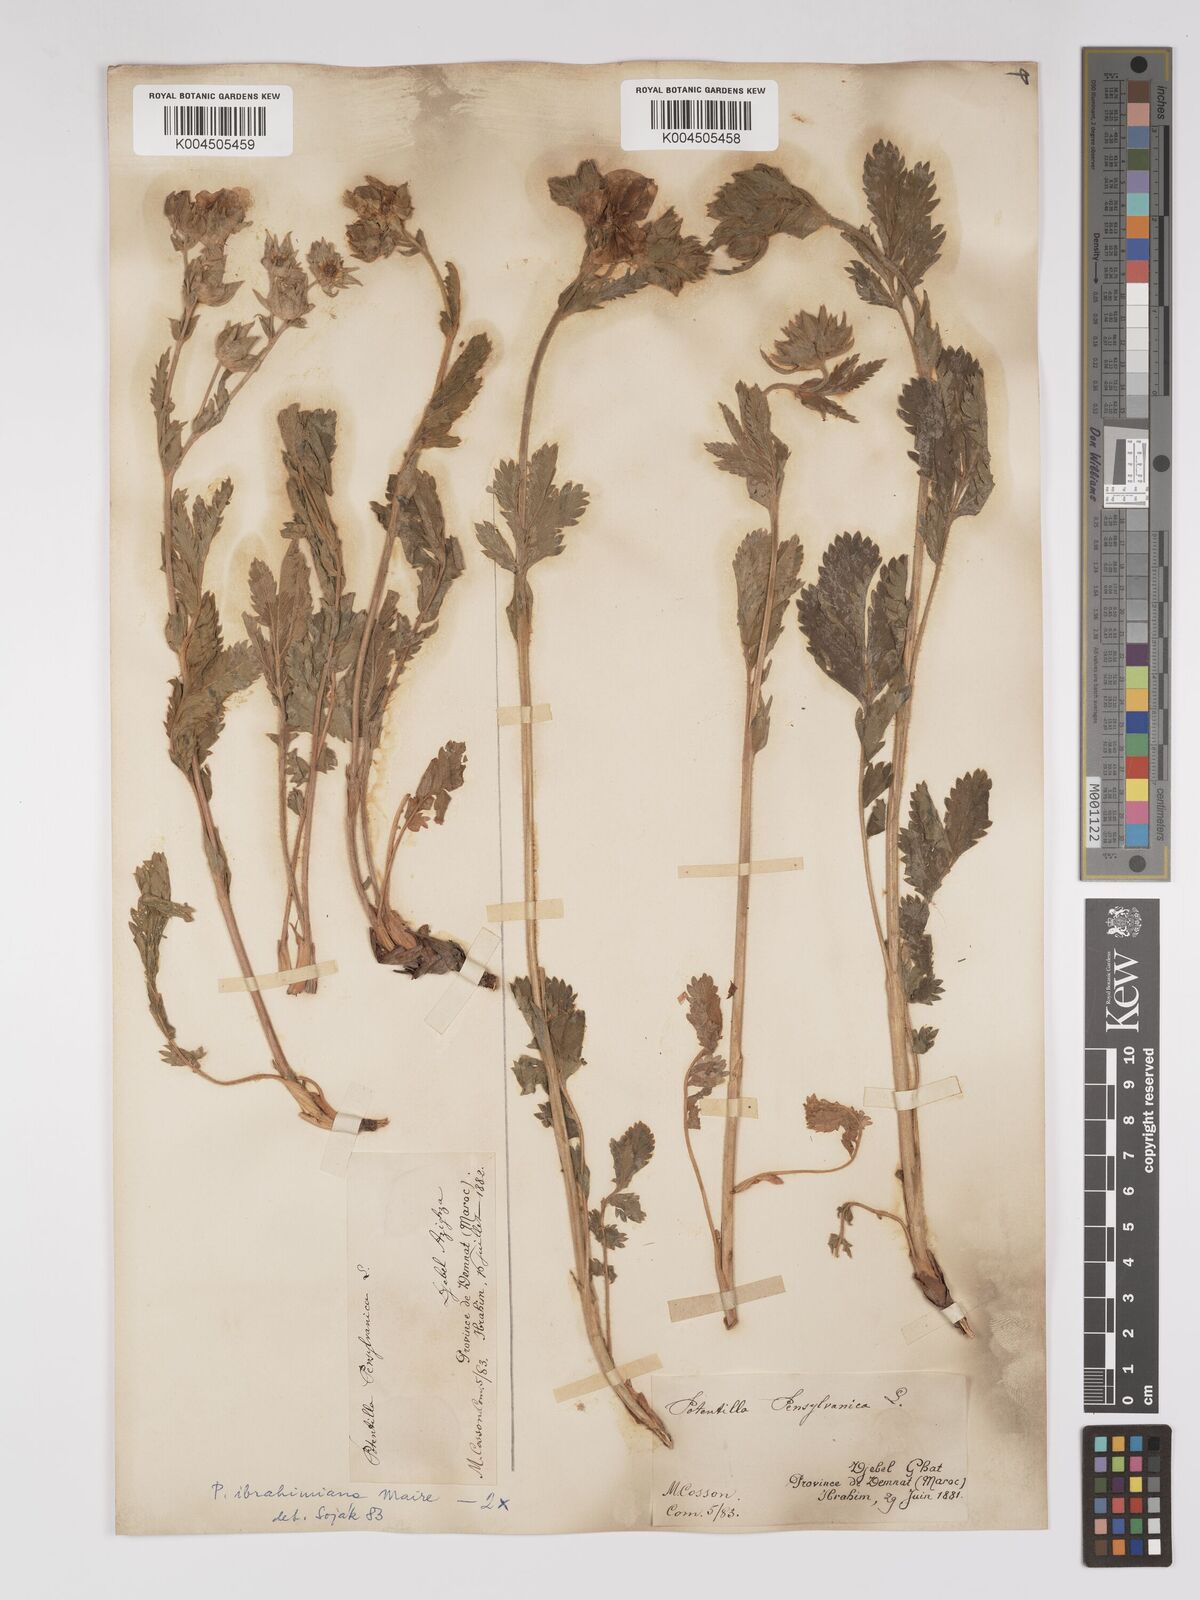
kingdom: Plantae
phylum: Tracheophyta
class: Magnoliopsida
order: Rosales
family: Rosaceae
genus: Potentilla
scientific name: Potentilla pensylvanica
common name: Pennsylvania cinquefoil
